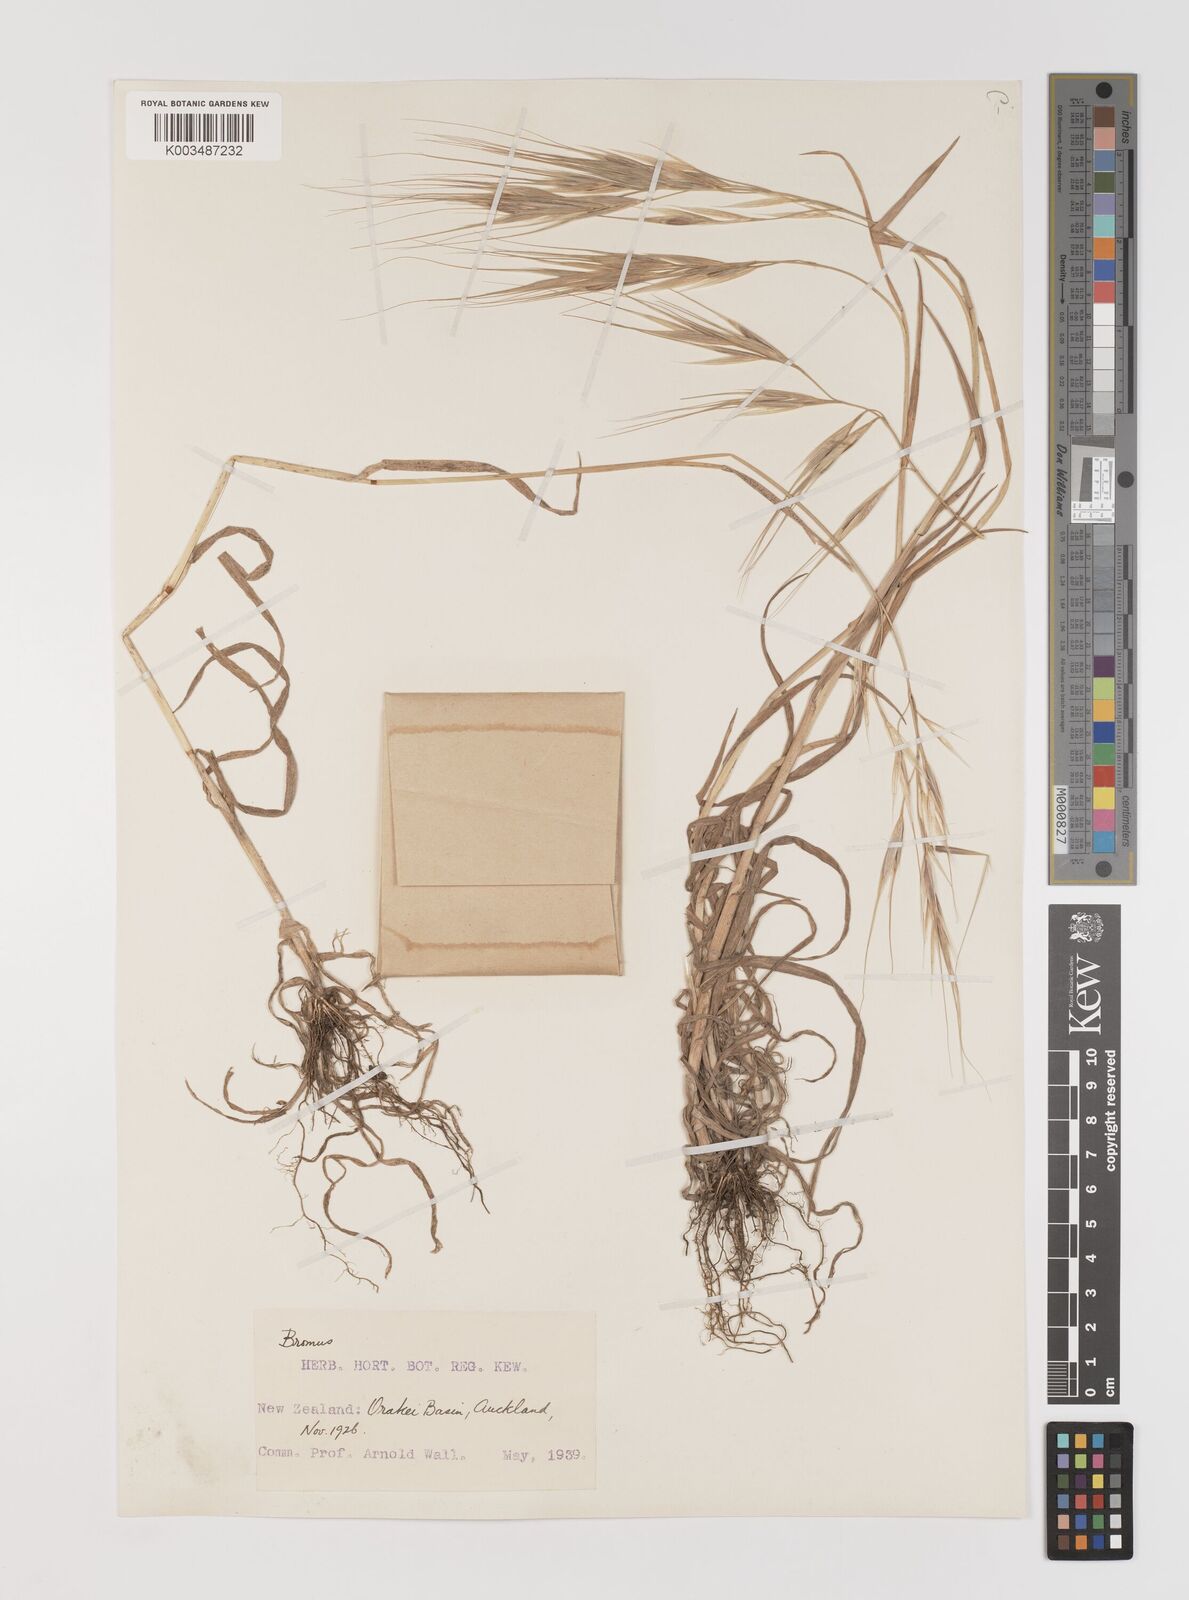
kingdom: Plantae
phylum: Tracheophyta
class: Liliopsida
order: Poales
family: Poaceae
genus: Bromus
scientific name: Bromus diandrus
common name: Ripgut brome
